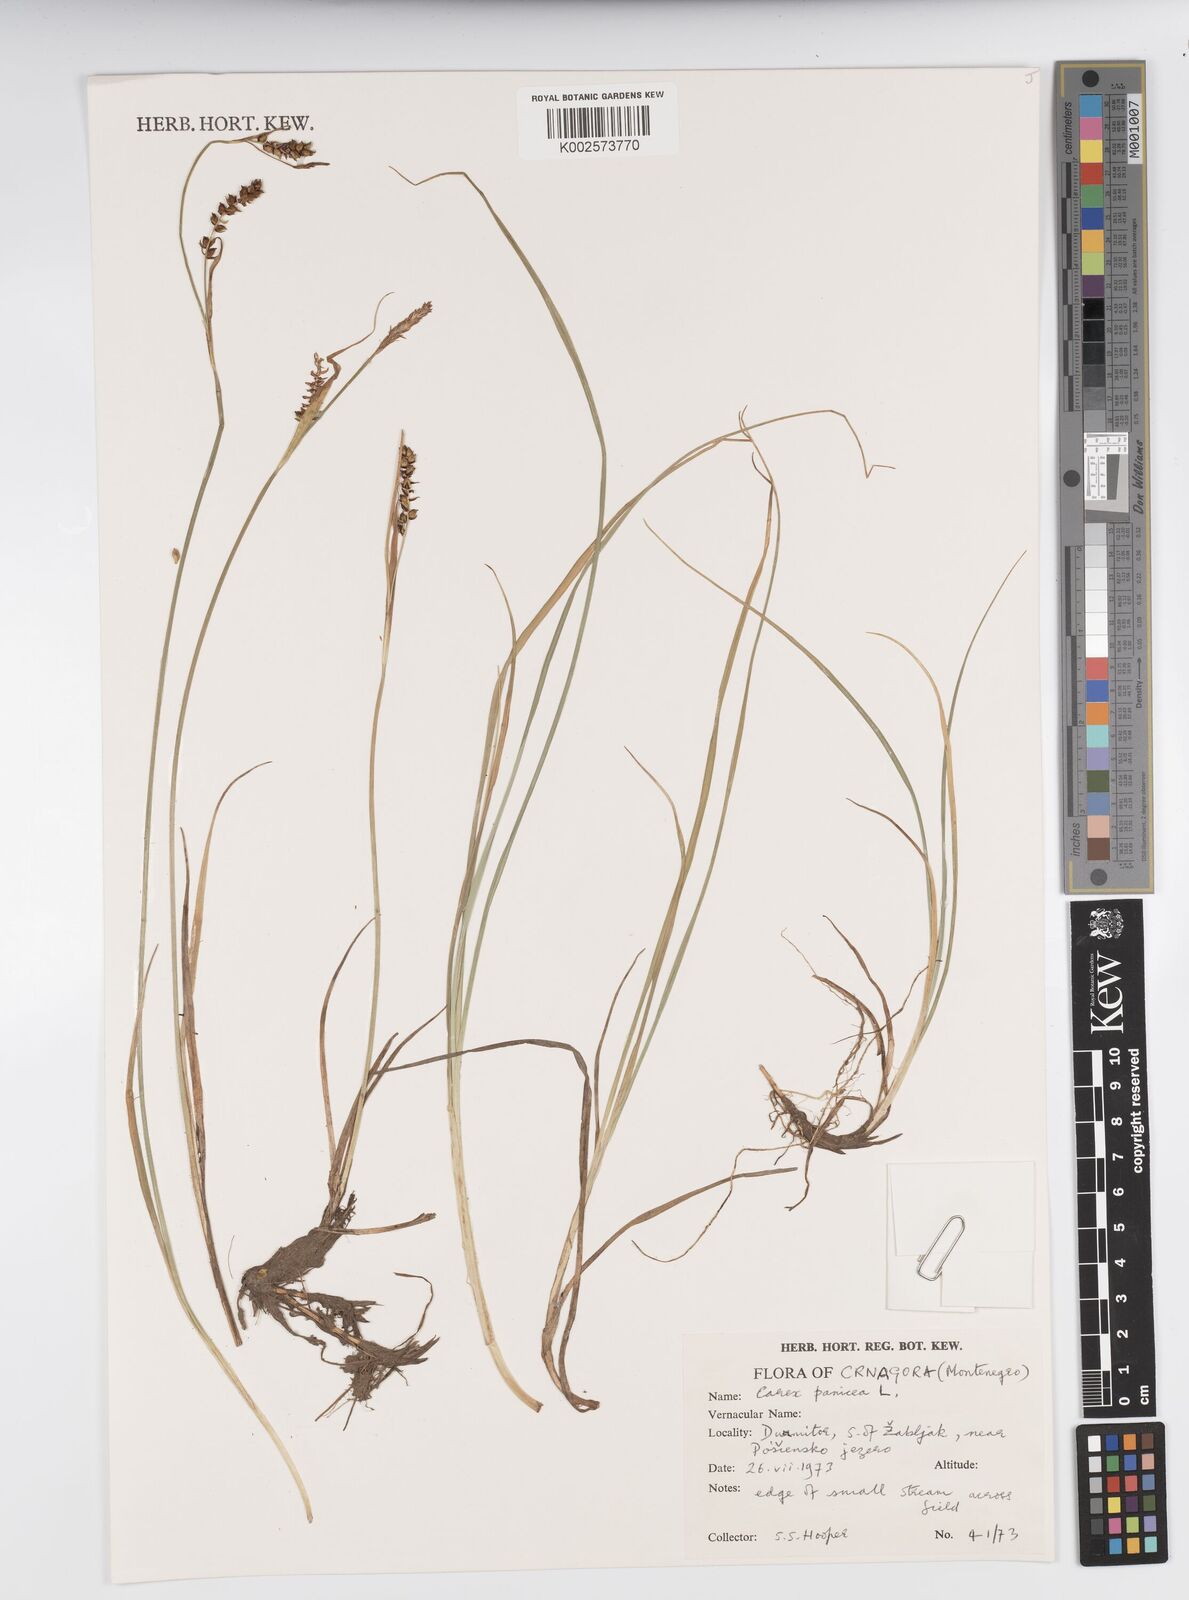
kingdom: Plantae
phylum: Tracheophyta
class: Liliopsida
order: Poales
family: Cyperaceae
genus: Carex
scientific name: Carex panicea
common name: Carnation sedge
